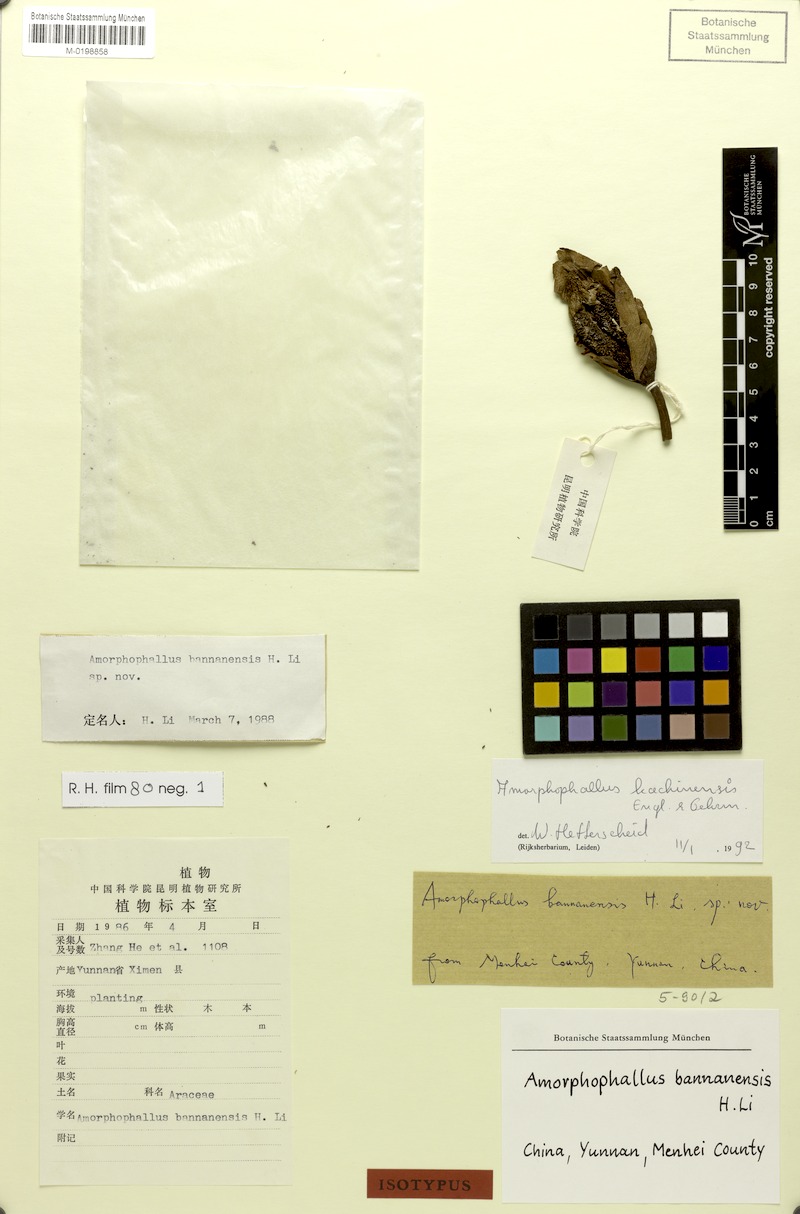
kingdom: Plantae
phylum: Tracheophyta
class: Liliopsida
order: Alismatales
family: Araceae
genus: Amorphophallus
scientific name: Amorphophallus kachinensis
